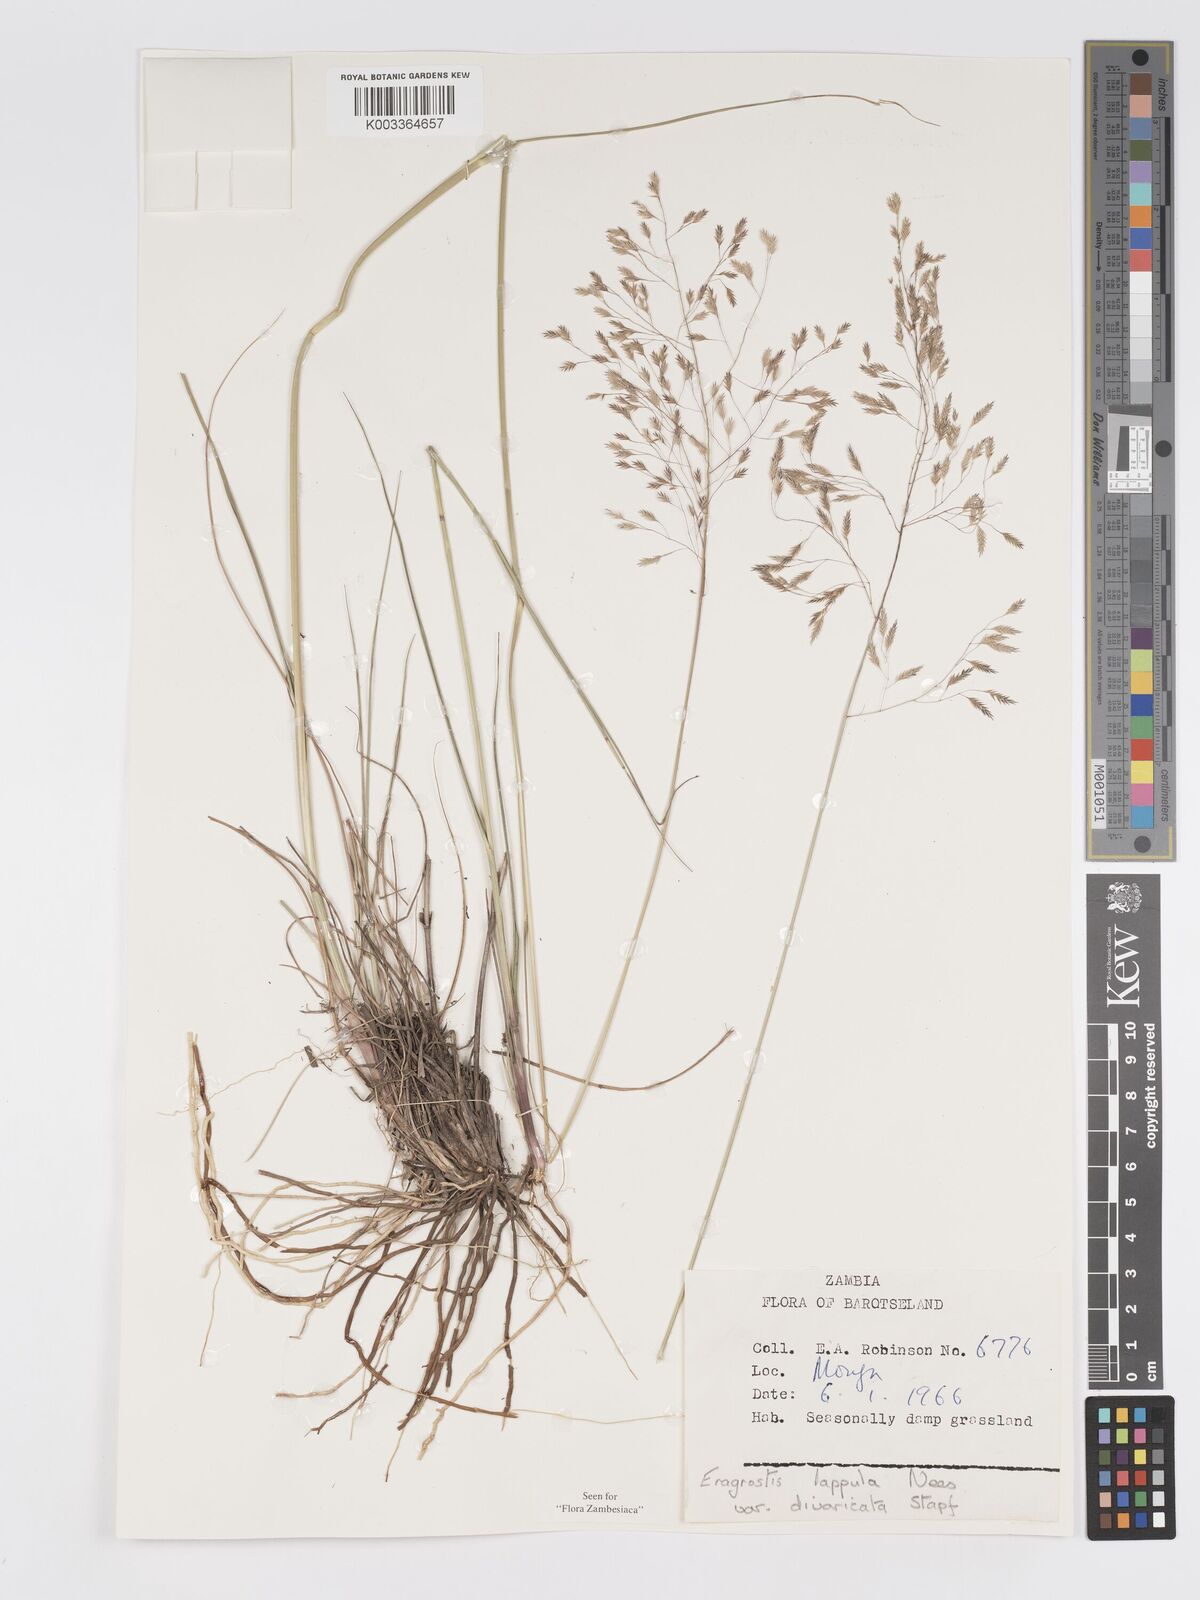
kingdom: Plantae
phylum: Tracheophyta
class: Liliopsida
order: Poales
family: Poaceae
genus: Eragrostis
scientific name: Eragrostis lappula
